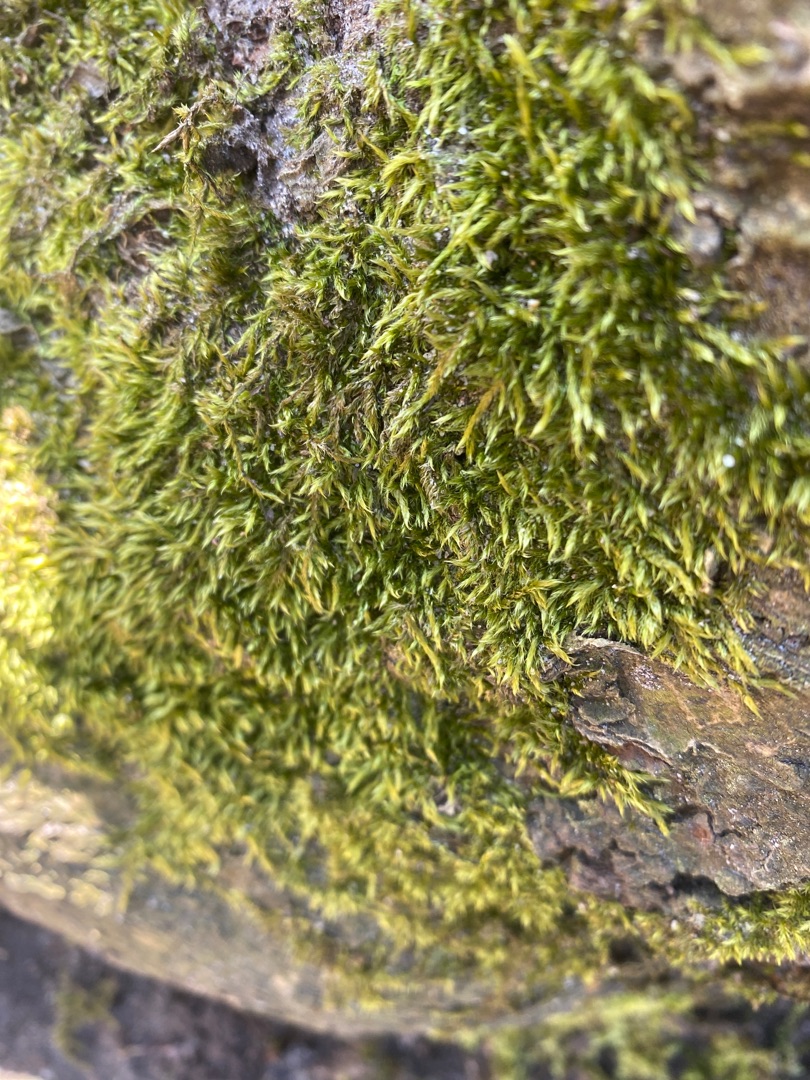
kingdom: Plantae
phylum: Bryophyta
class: Bryopsida
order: Hypnales
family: Hypnaceae
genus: Hypnum
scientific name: Hypnum
